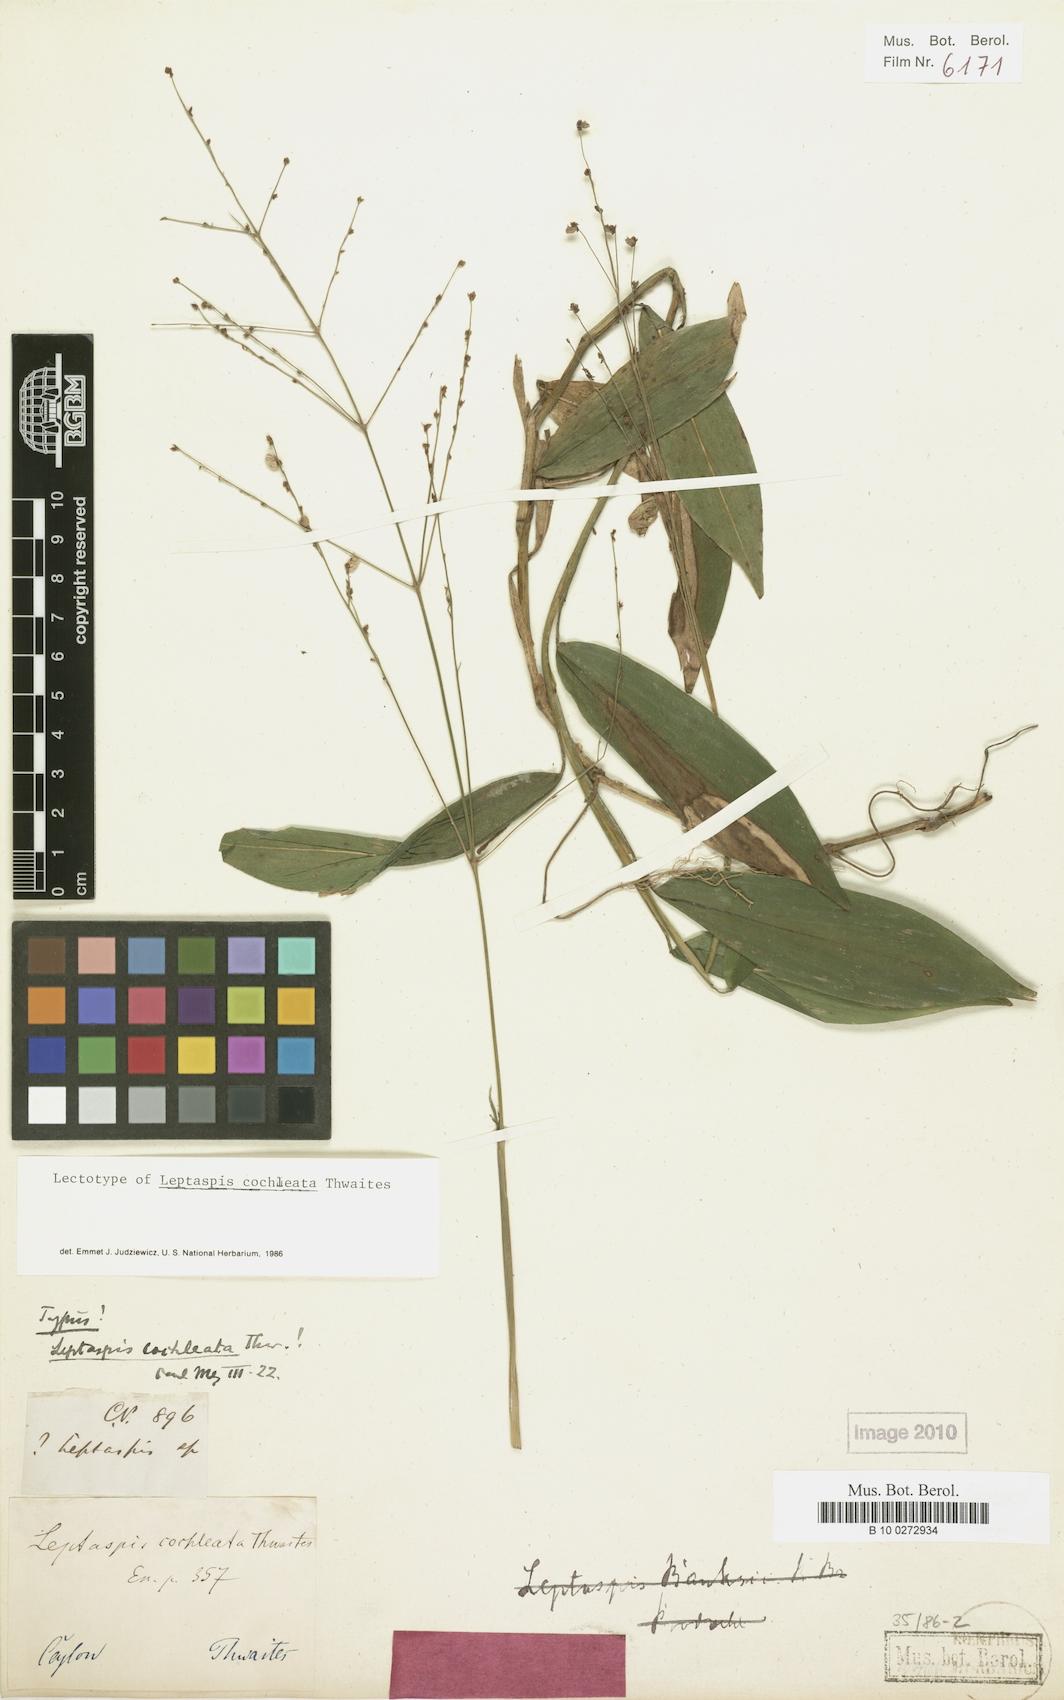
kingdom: Plantae
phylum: Tracheophyta
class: Liliopsida
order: Poales
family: Poaceae
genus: Leptaspis
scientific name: Leptaspis zeylanica
